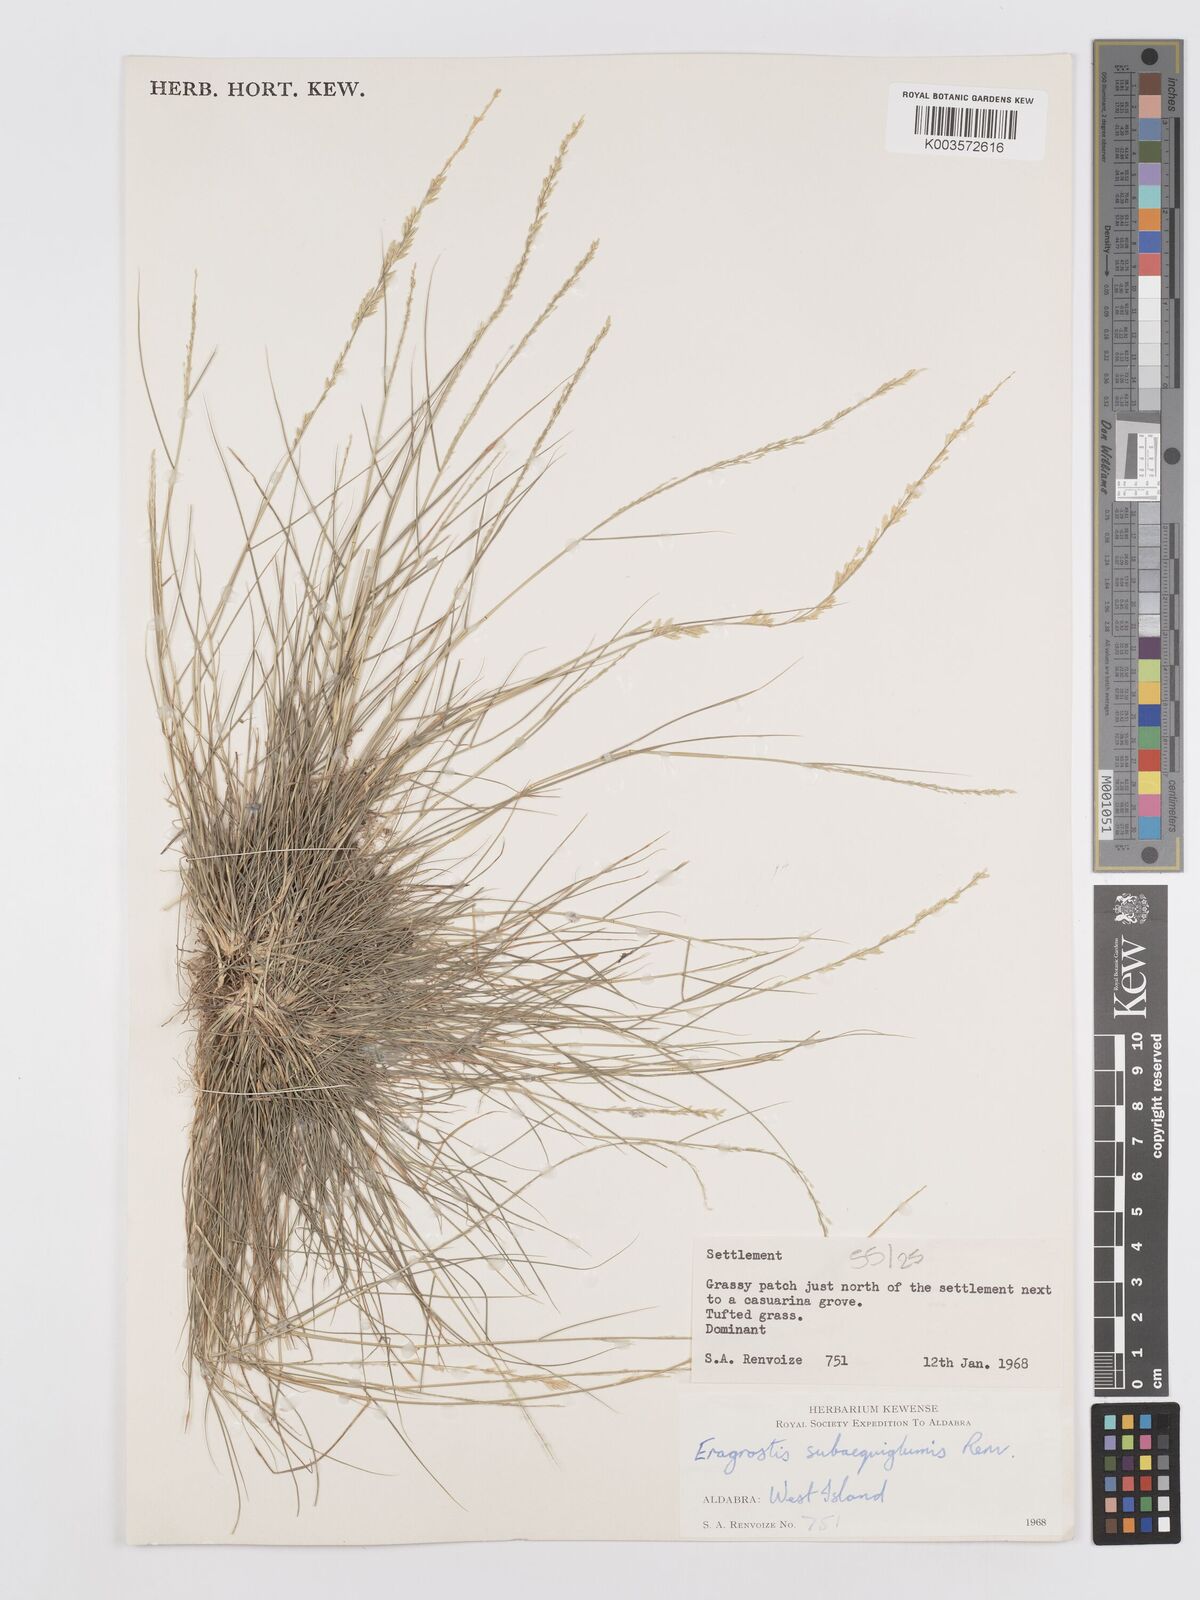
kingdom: Plantae
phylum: Tracheophyta
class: Liliopsida
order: Poales
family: Poaceae
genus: Eragrostis
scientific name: Eragrostis subaequiglumis
